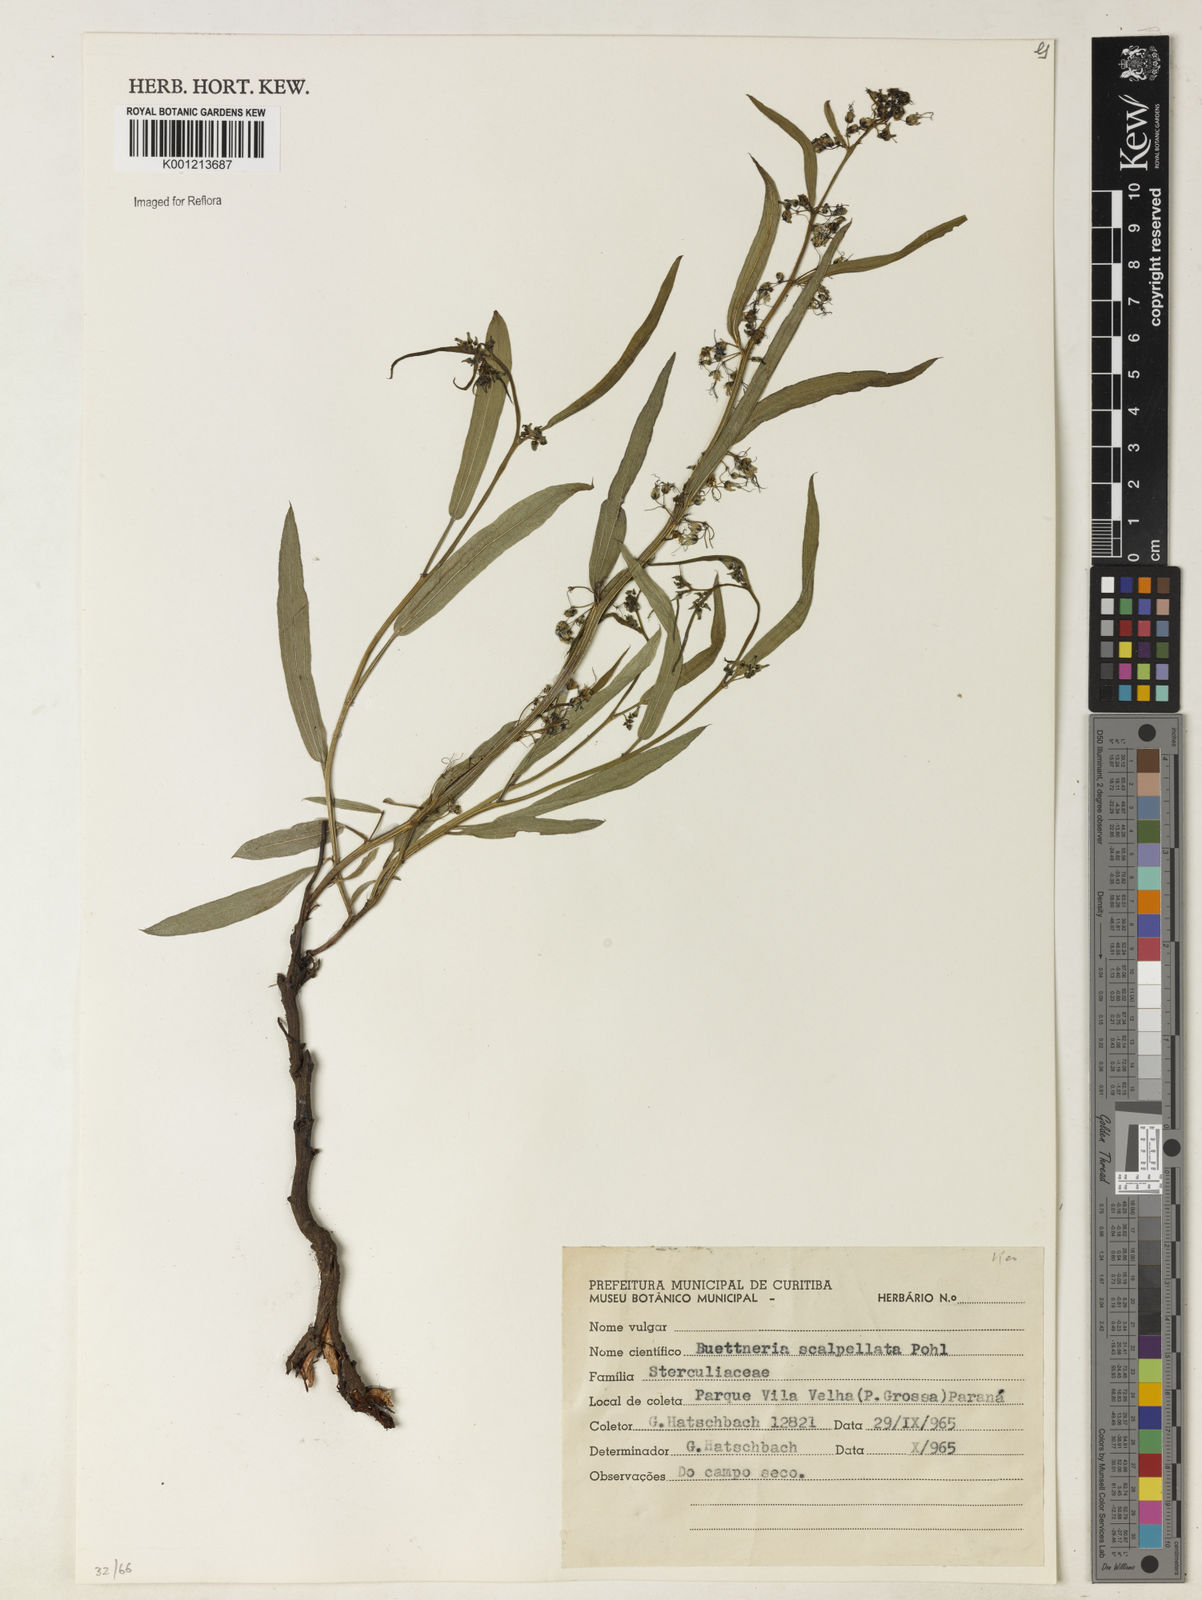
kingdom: Plantae
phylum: Tracheophyta
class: Magnoliopsida
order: Malvales
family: Malvaceae
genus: Byttneria
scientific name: Byttneria scalpellata
